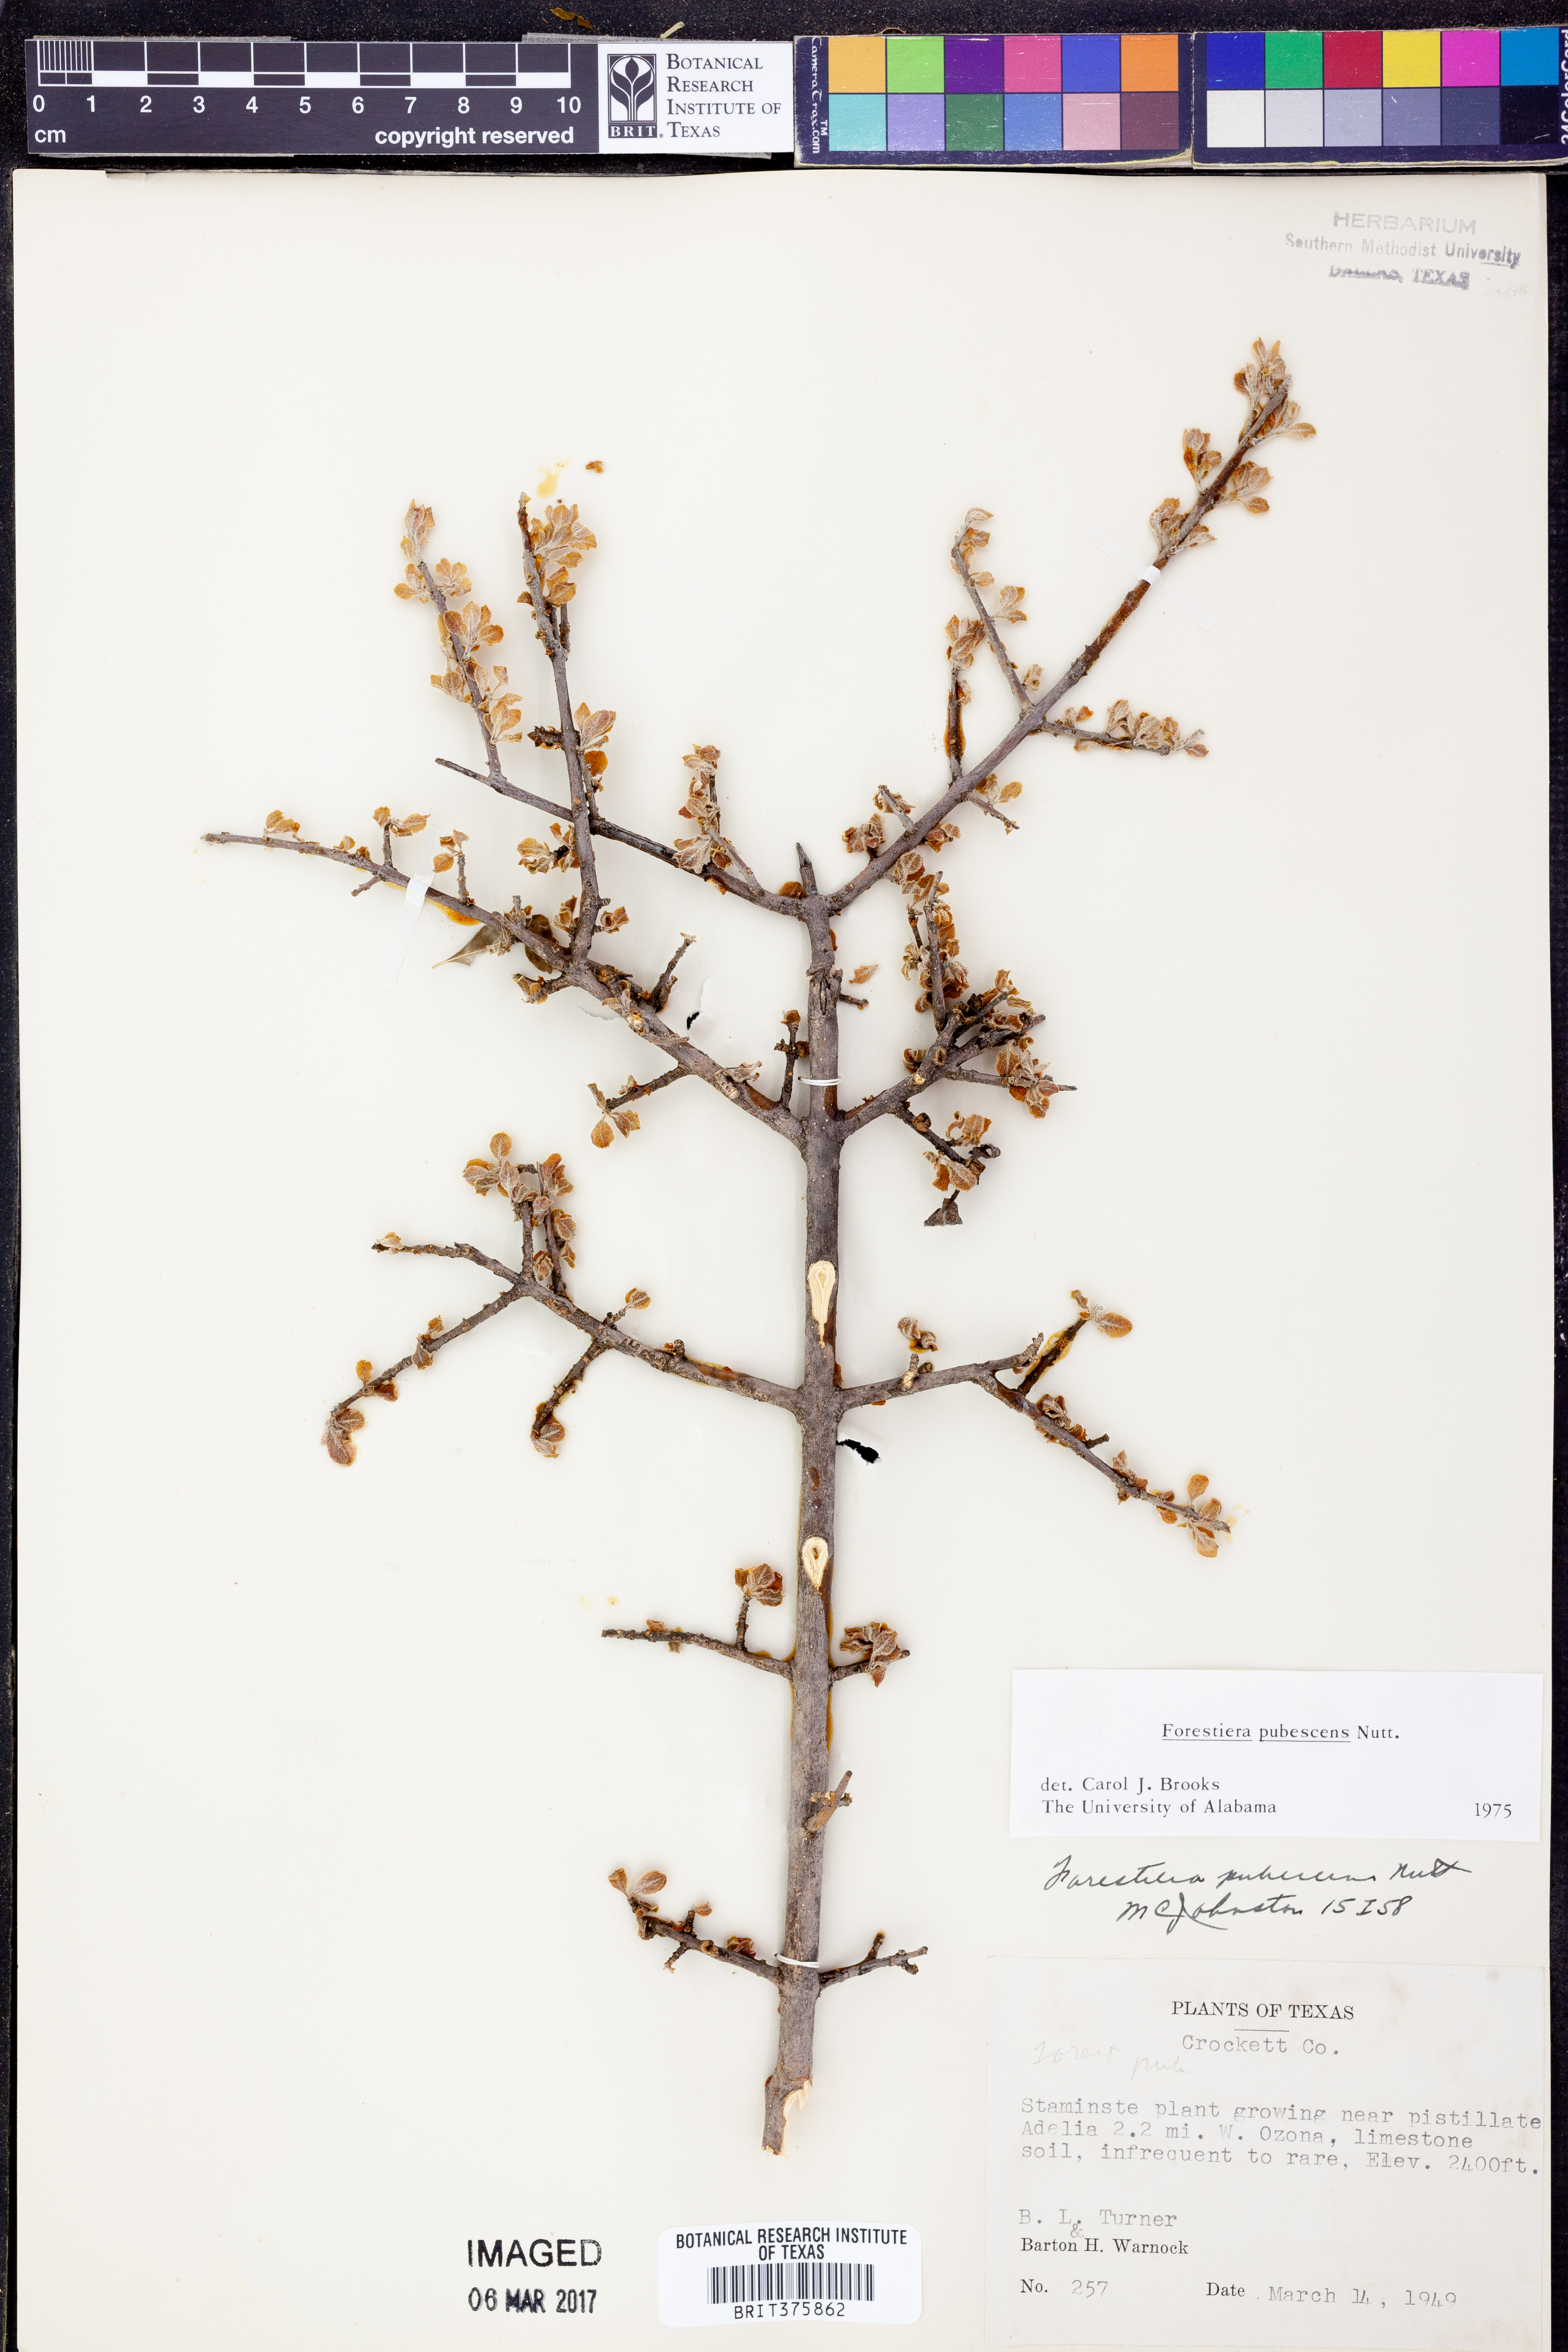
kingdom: Plantae
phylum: Tracheophyta
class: Magnoliopsida
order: Lamiales
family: Oleaceae
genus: Forestiera
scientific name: Forestiera pubescens
